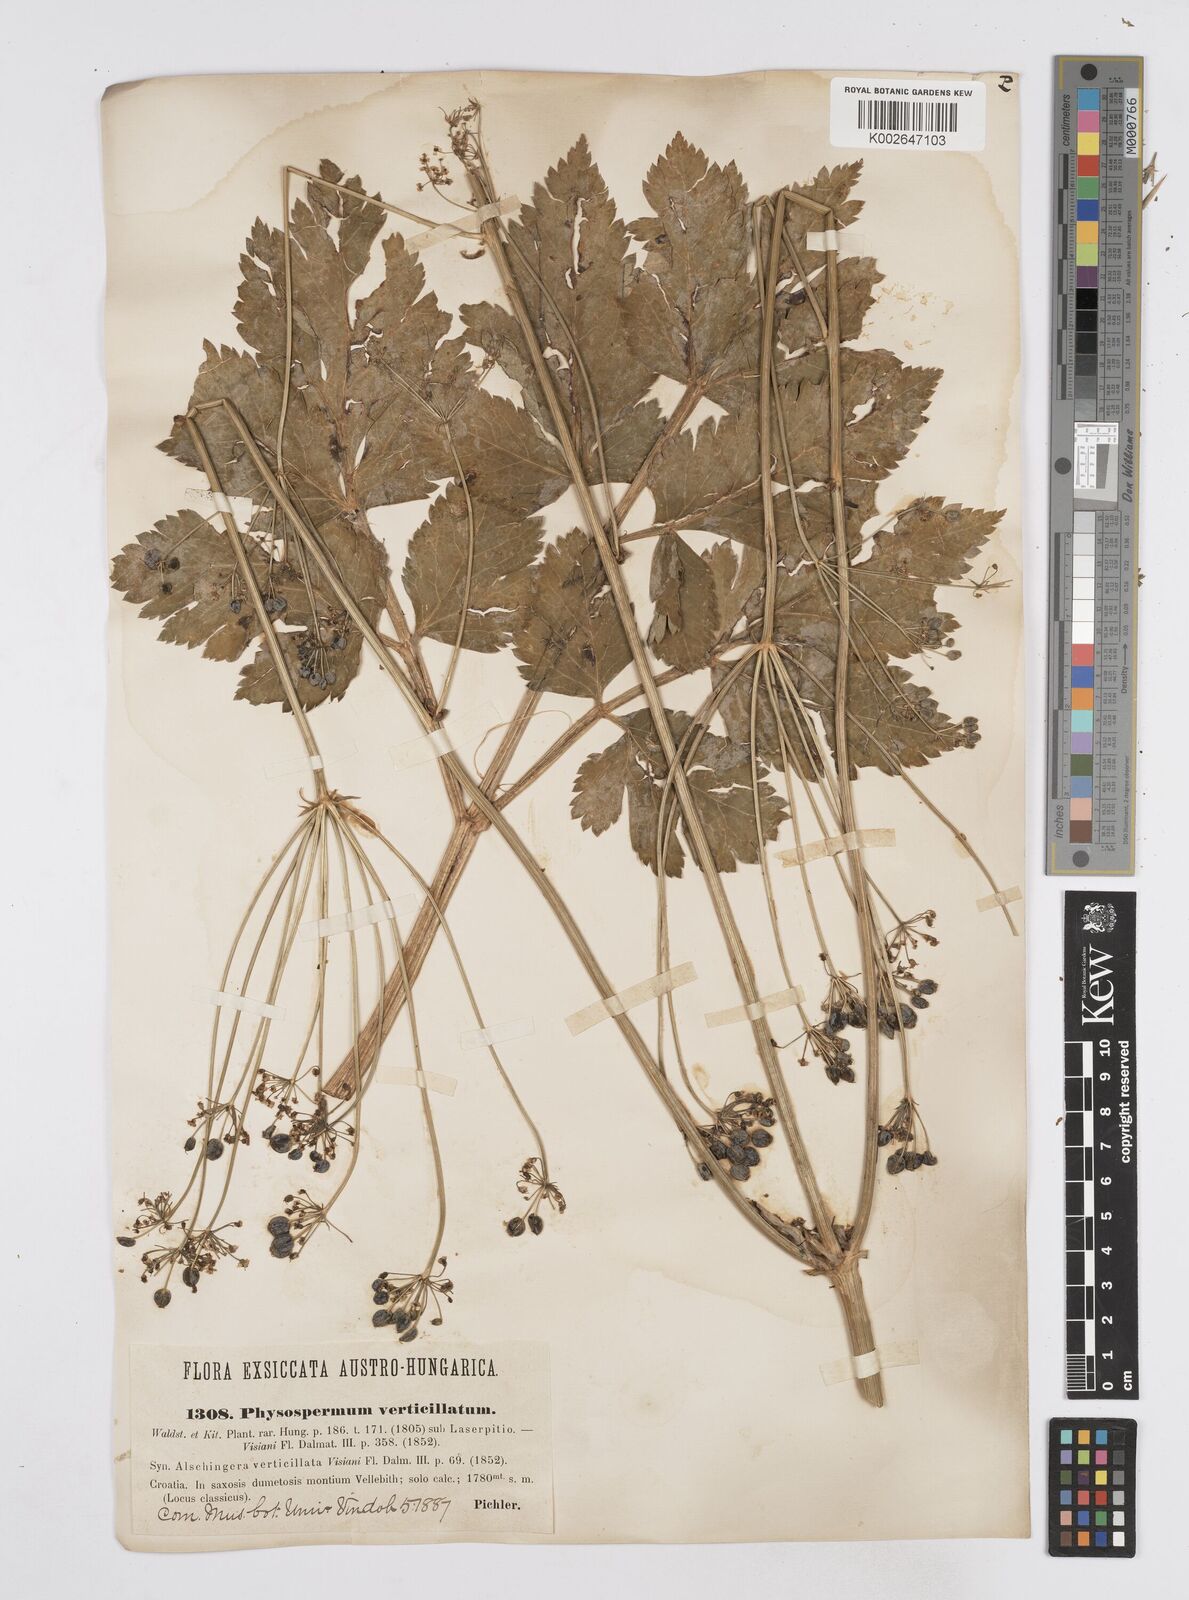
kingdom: Plantae
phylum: Tracheophyta
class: Magnoliopsida
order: Apiales
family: Apiaceae
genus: Physospermum
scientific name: Physospermum verticillatum
